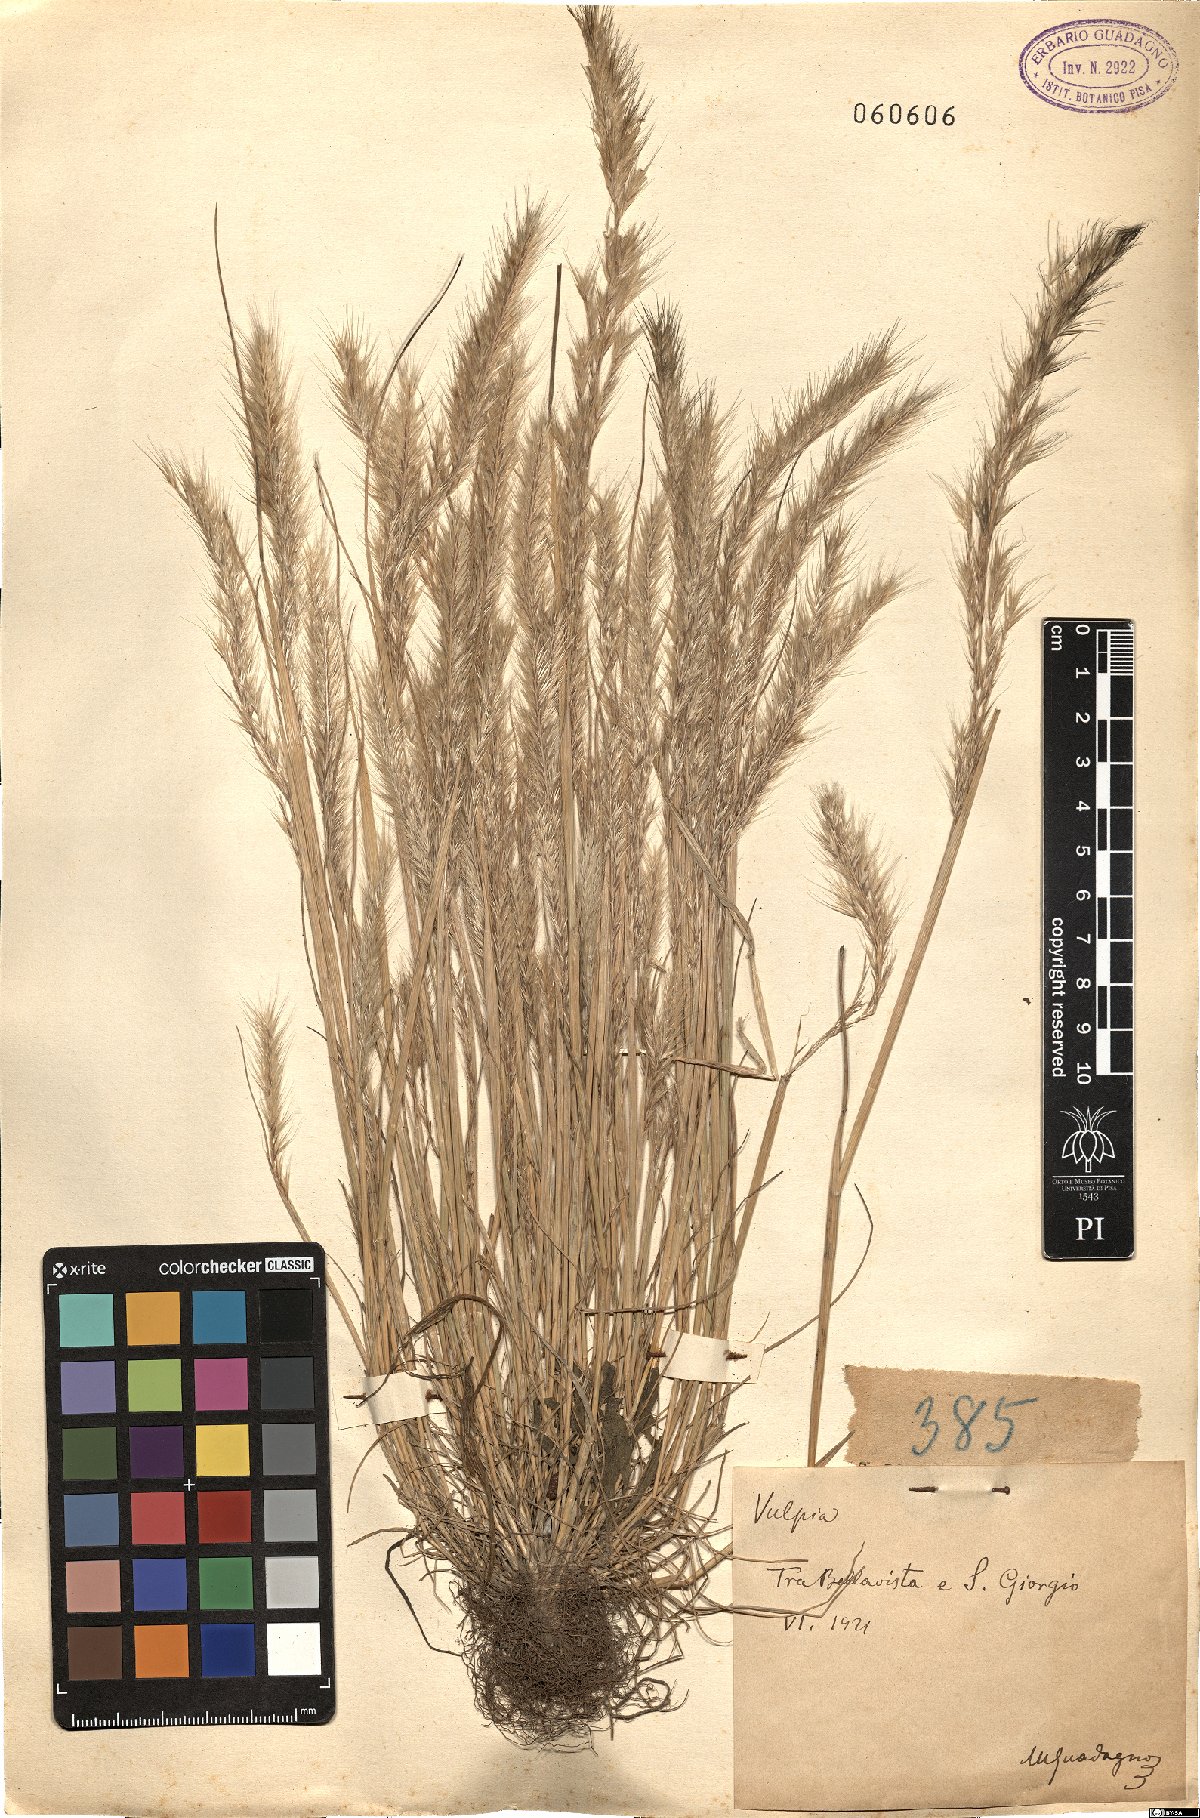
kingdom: Plantae
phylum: Tracheophyta
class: Liliopsida
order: Poales
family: Poaceae
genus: Festuca
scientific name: Festuca
